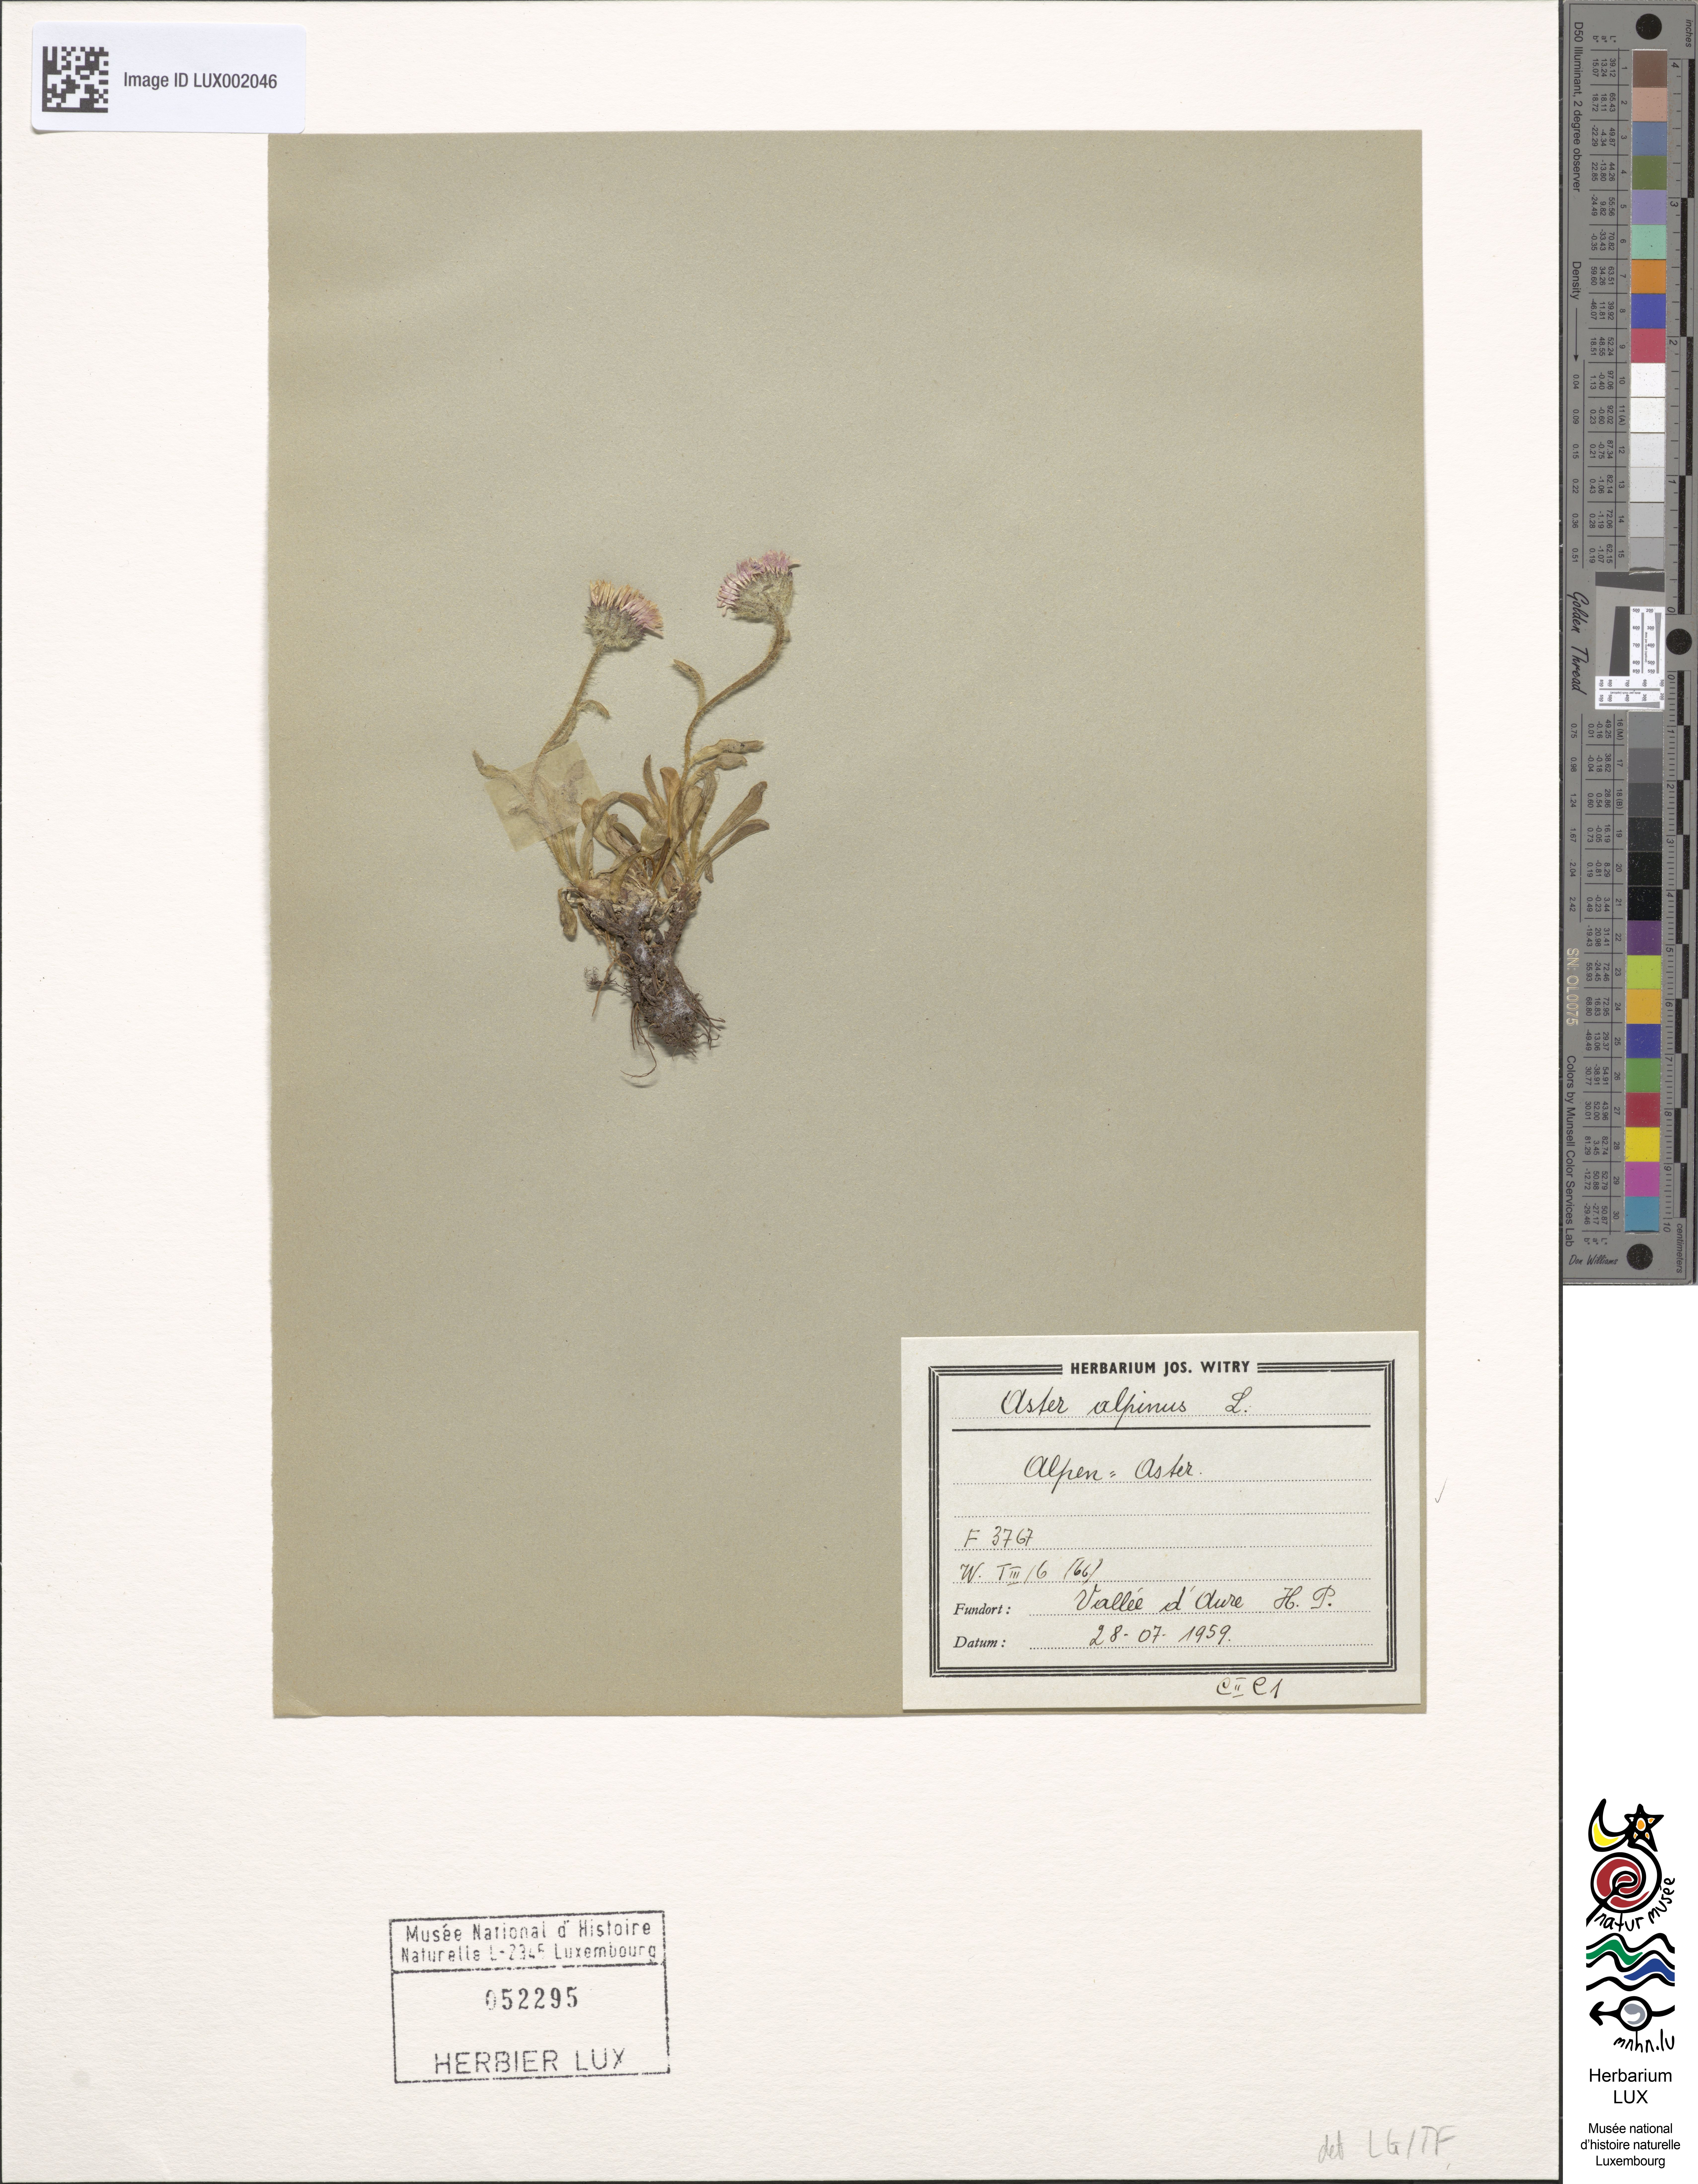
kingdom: Plantae
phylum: Tracheophyta
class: Magnoliopsida
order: Asterales
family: Asteraceae
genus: Aster
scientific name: Aster alpinus
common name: Alpine aster
